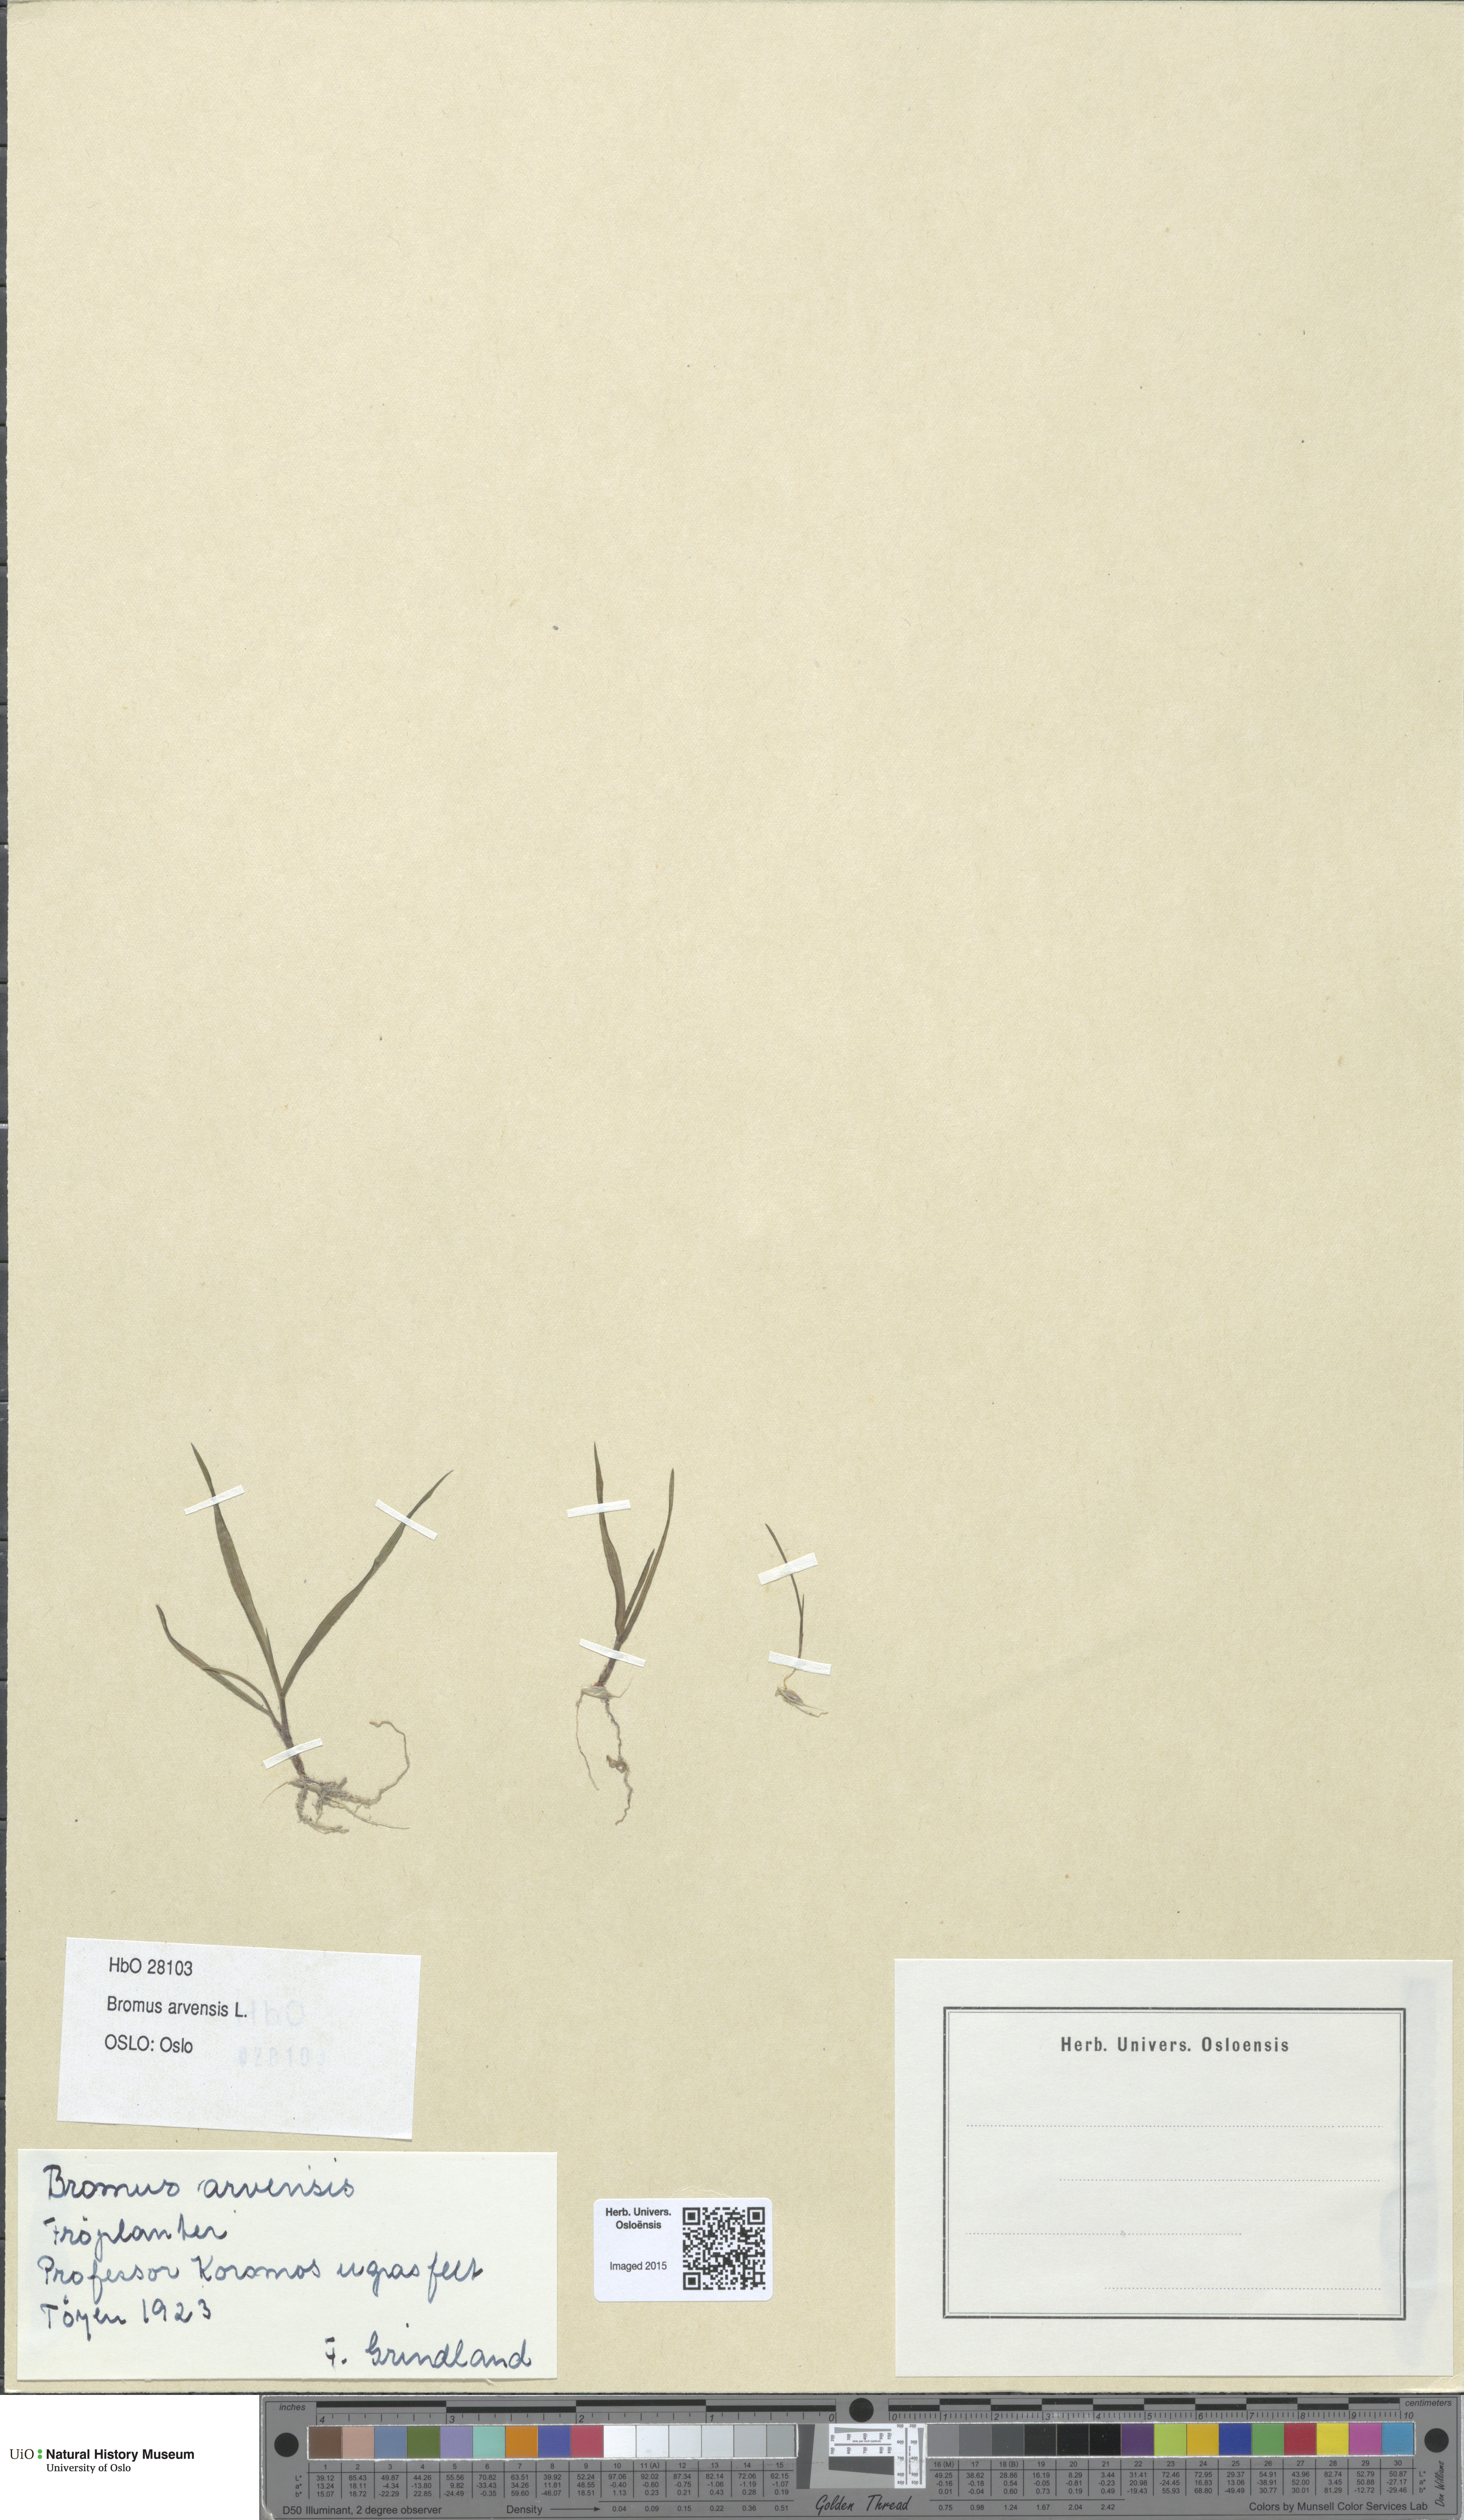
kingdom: Plantae
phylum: Tracheophyta
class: Liliopsida
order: Poales
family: Poaceae
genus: Bromus
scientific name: Bromus arvensis
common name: Field brome
